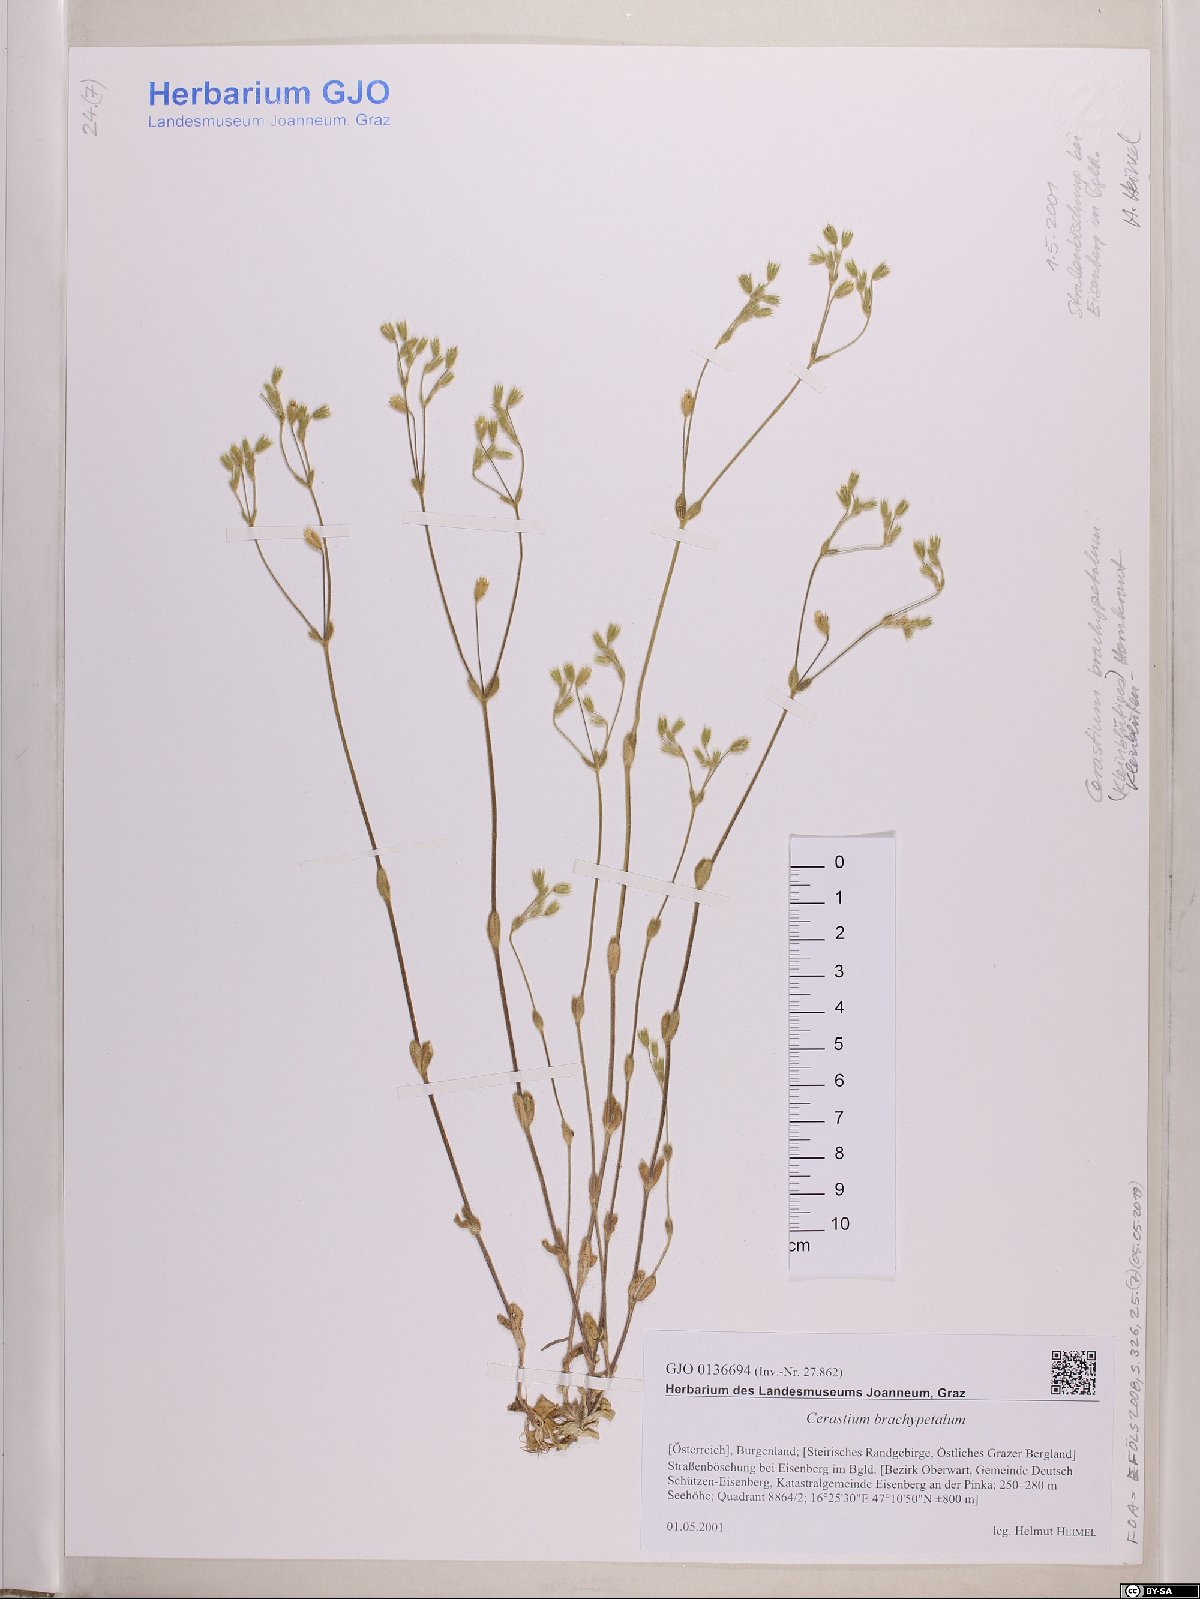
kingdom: Plantae
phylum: Tracheophyta
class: Magnoliopsida
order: Caryophyllales
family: Caryophyllaceae
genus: Cerastium
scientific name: Cerastium brachypetalum
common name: Grey mouse-ear
